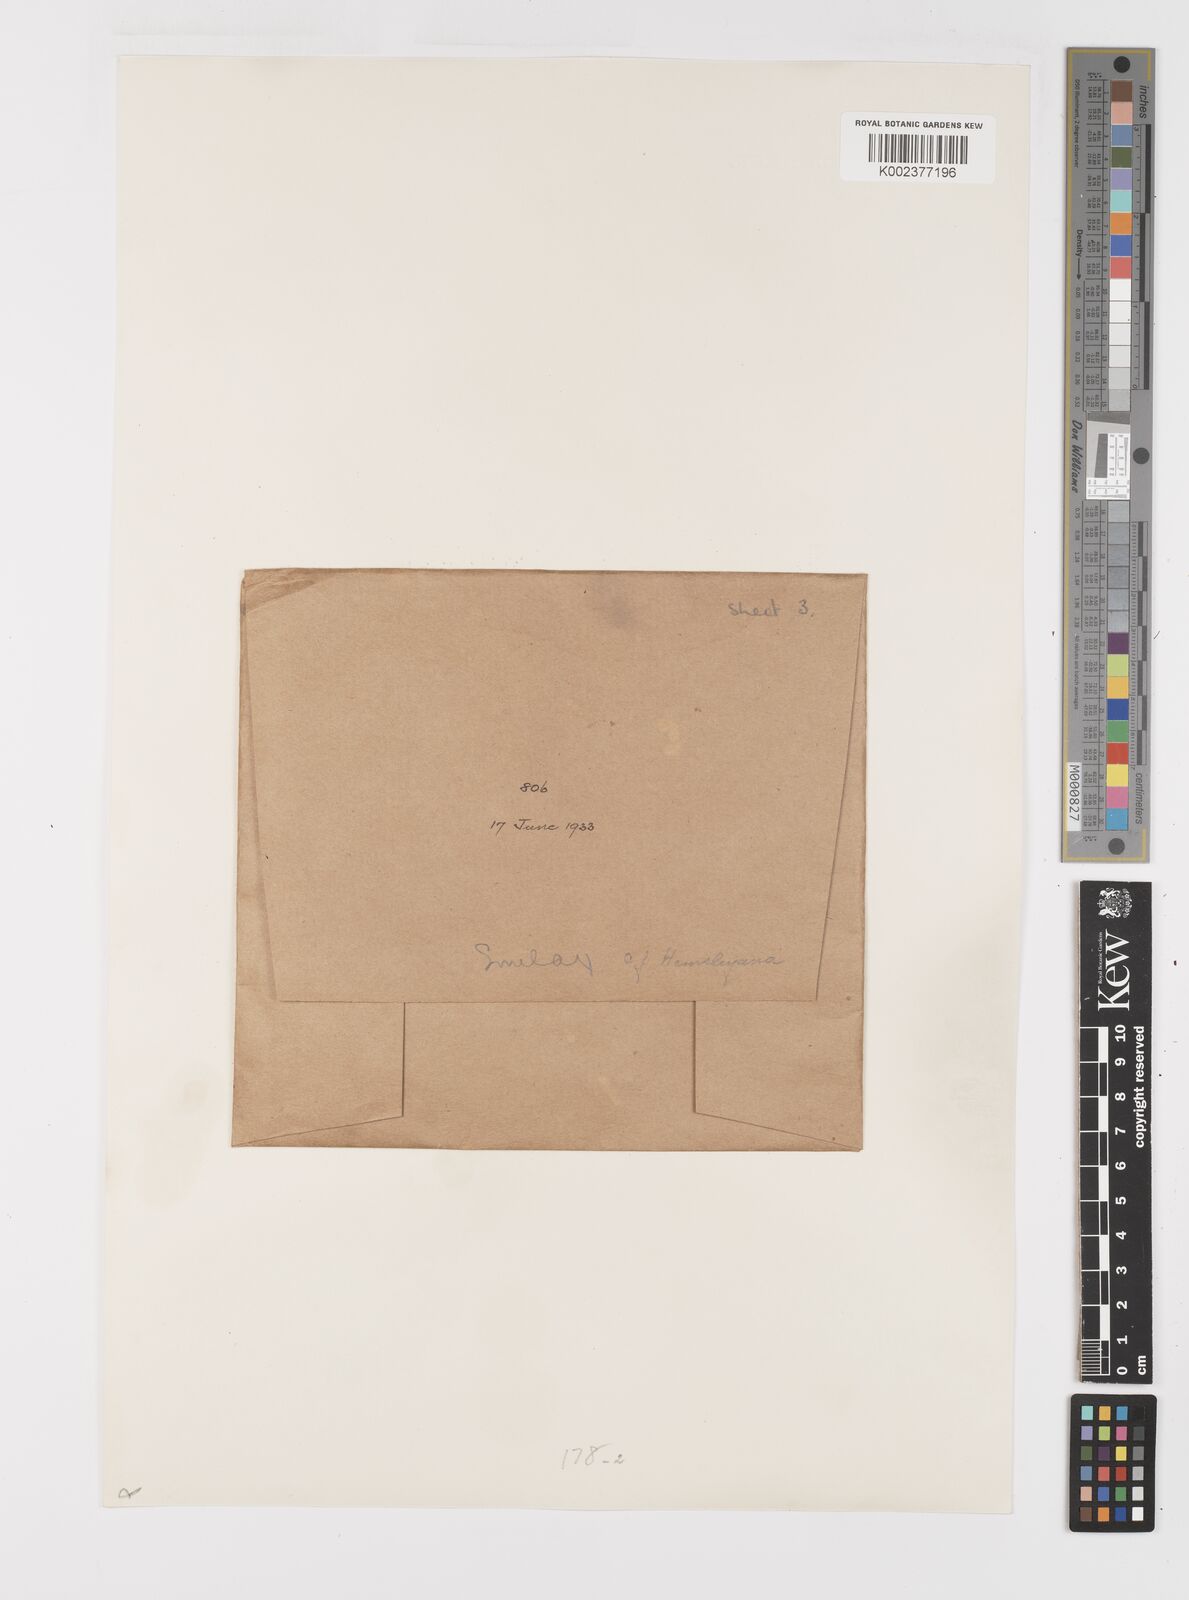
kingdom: Plantae
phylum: Tracheophyta
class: Liliopsida
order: Liliales
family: Smilacaceae
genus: Smilax
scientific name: Smilax hemsleyana
